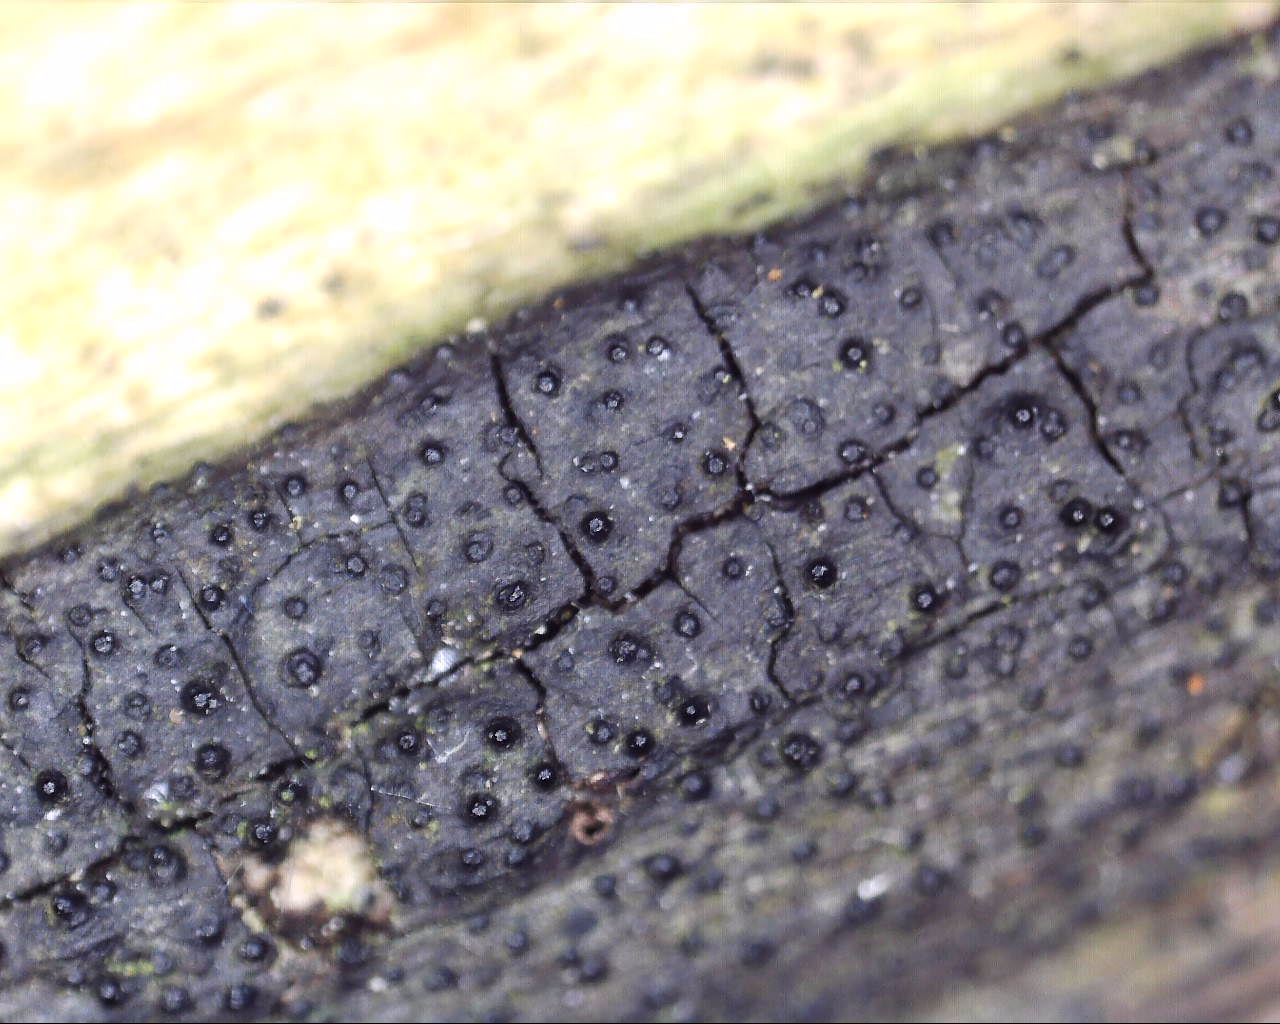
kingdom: Fungi
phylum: Ascomycota
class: Sordariomycetes
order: Xylariales
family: Diatrypaceae
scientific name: Diatrypaceae
